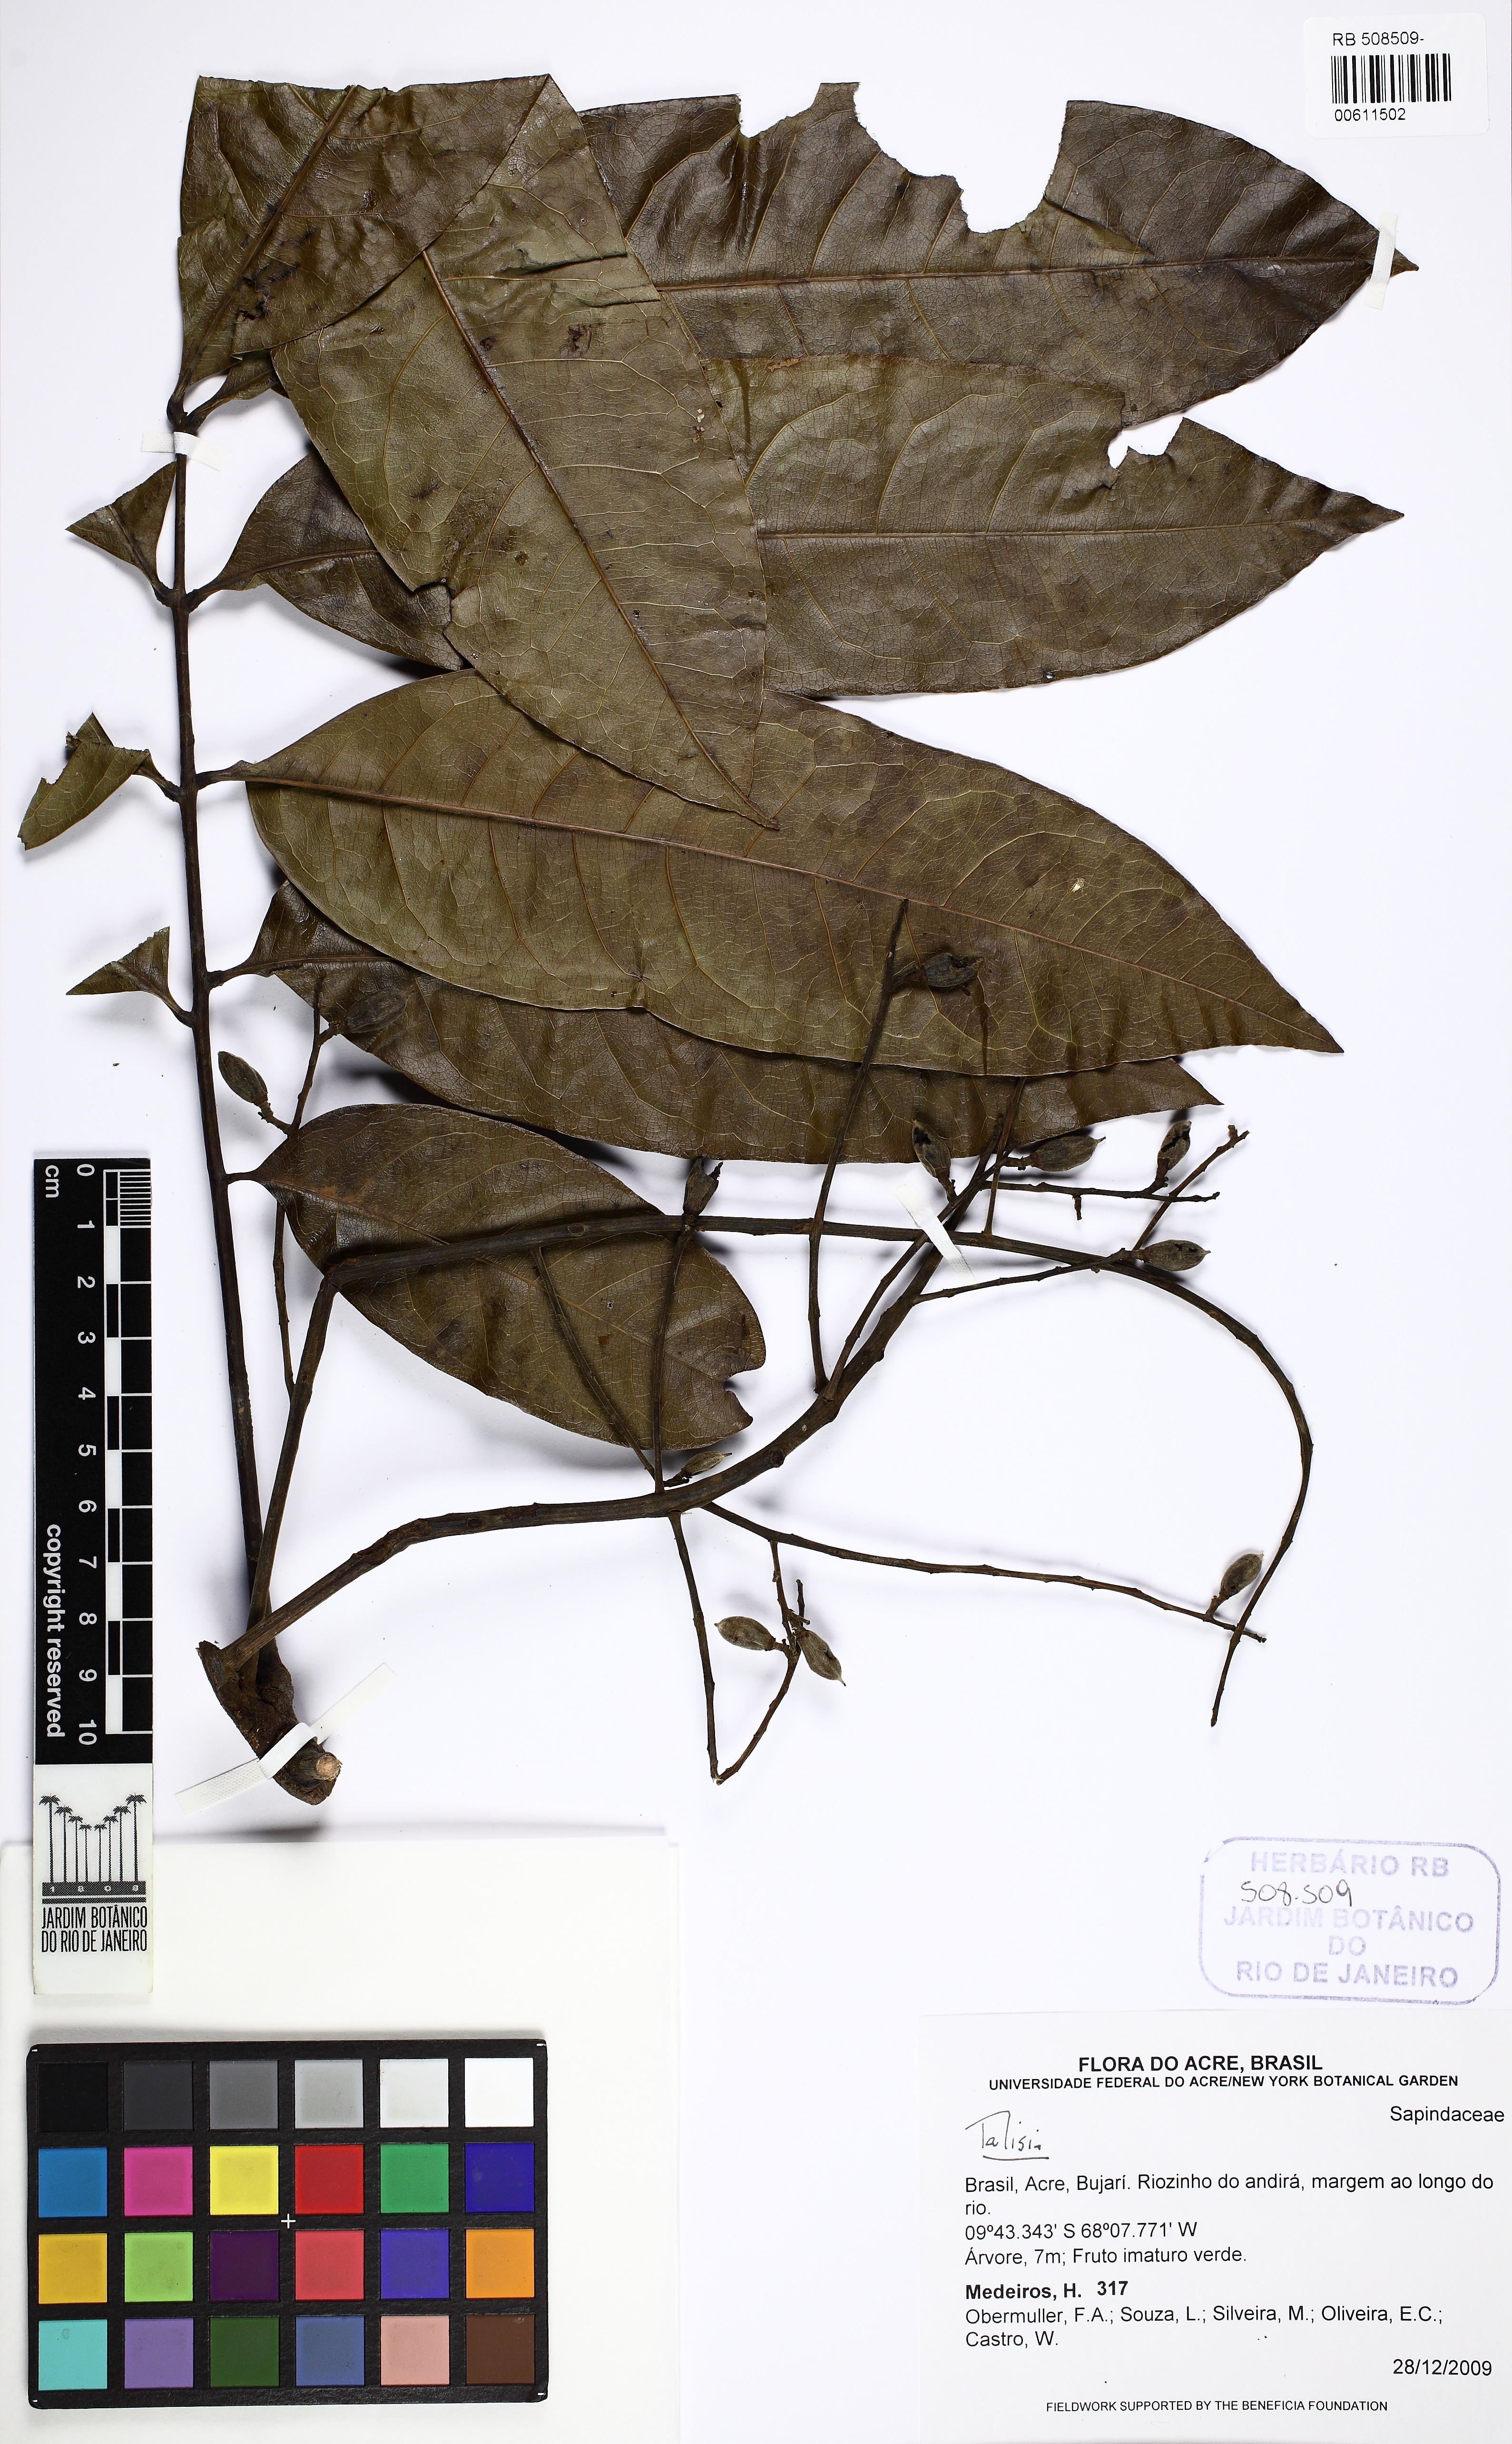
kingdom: Plantae
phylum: Tracheophyta
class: Magnoliopsida
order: Sapindales
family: Sapindaceae
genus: Talisia
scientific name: Talisia
